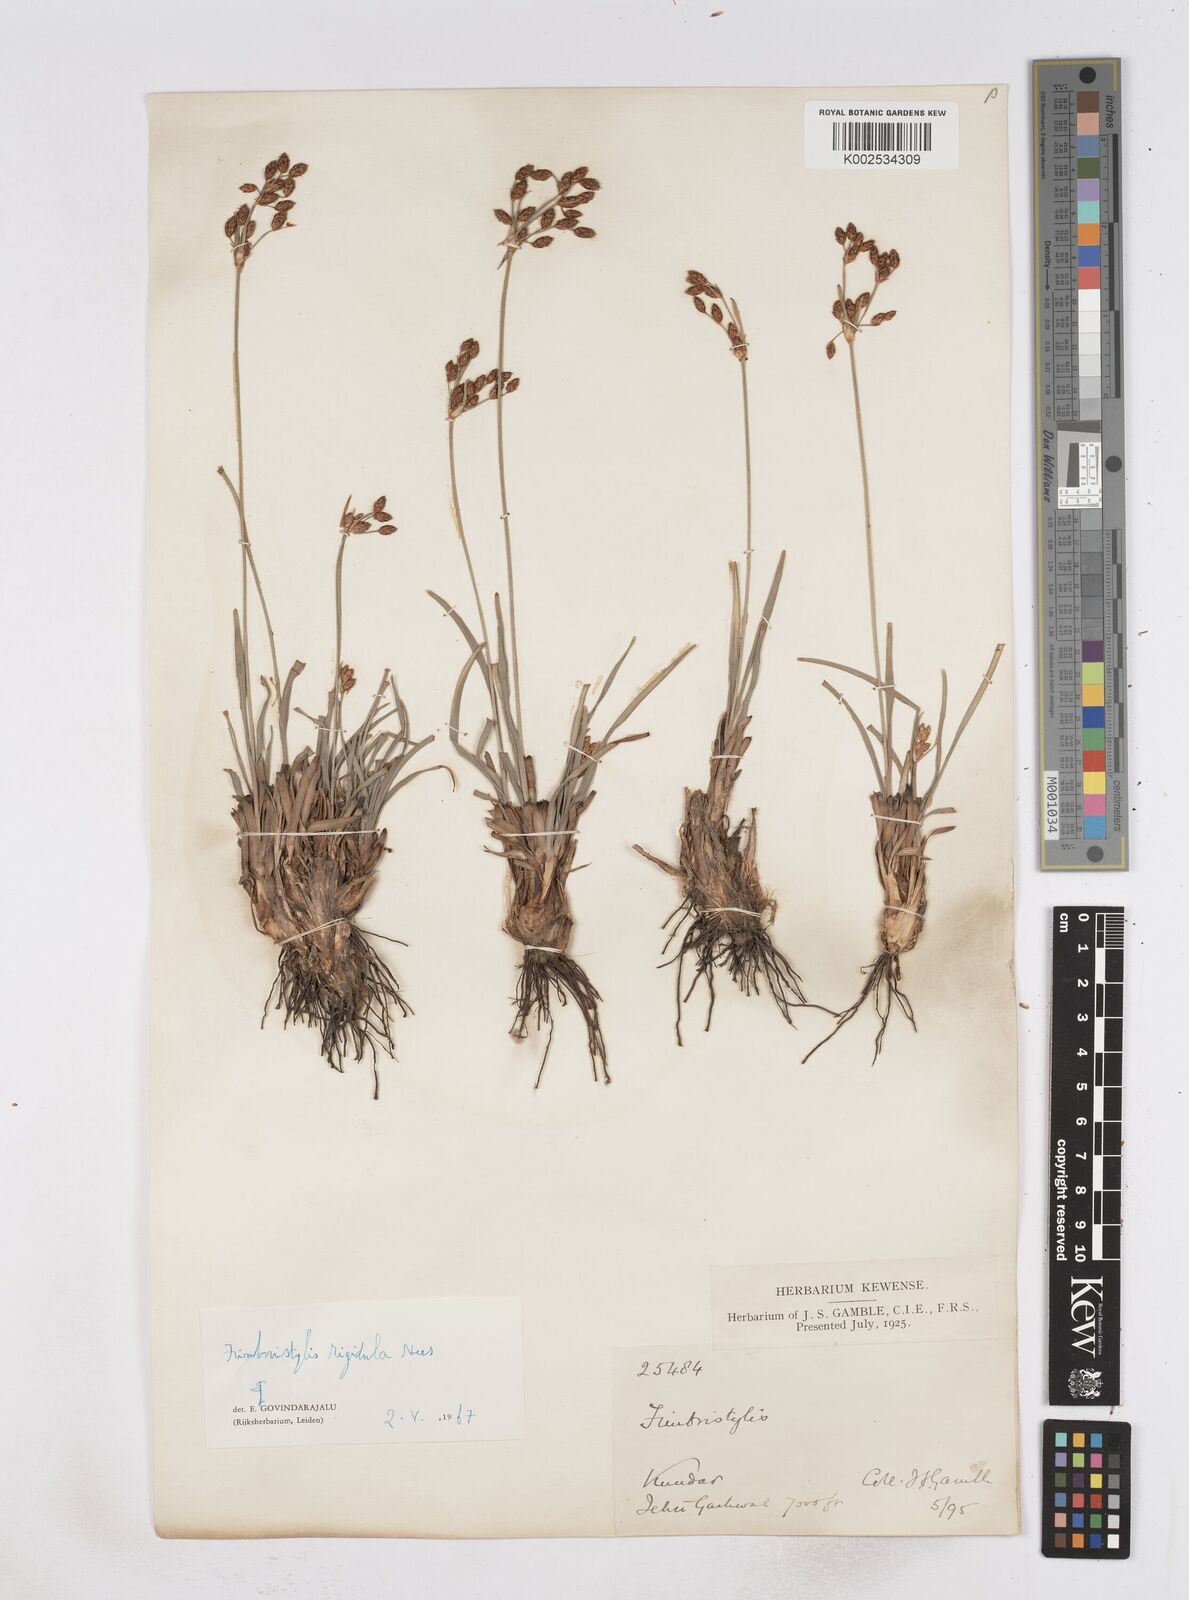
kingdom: Plantae
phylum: Tracheophyta
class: Liliopsida
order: Poales
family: Cyperaceae
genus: Fimbristylis
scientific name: Fimbristylis rigidula
